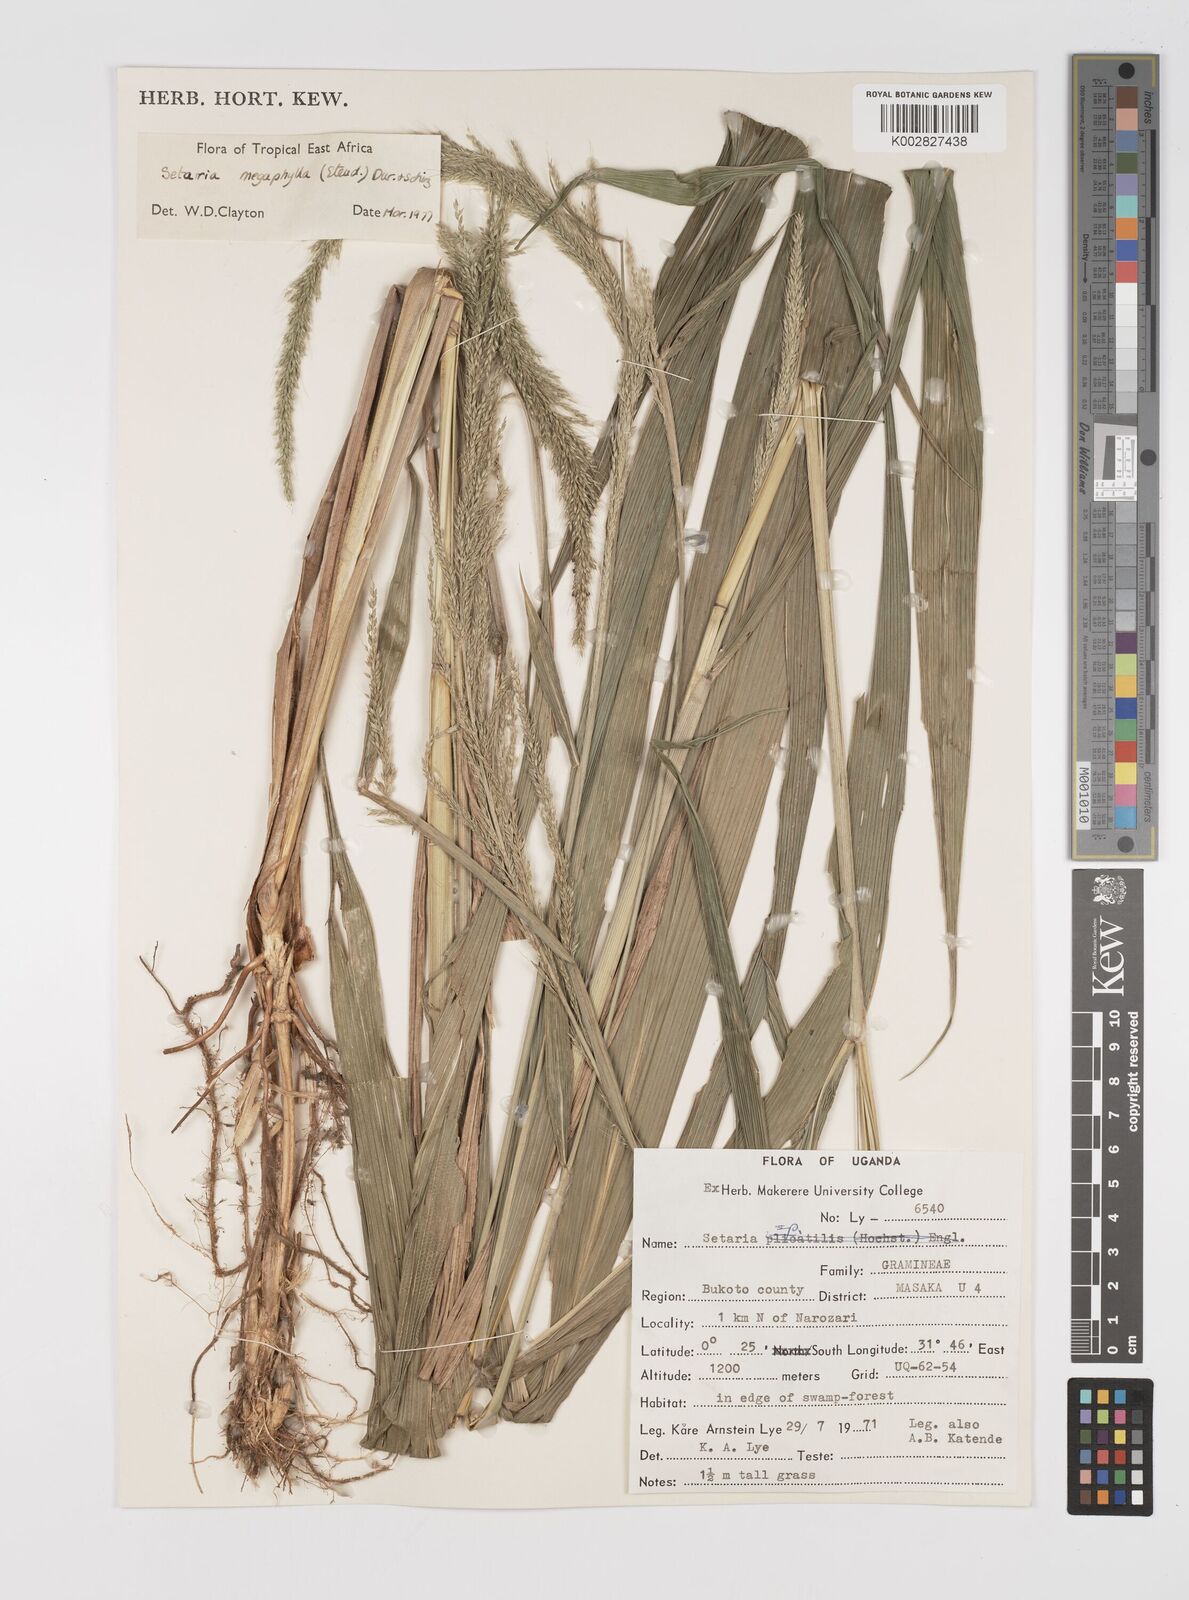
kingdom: Plantae
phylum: Tracheophyta
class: Liliopsida
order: Poales
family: Poaceae
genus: Setaria
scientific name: Setaria megaphylla
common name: Bigleaf bristlegrass
